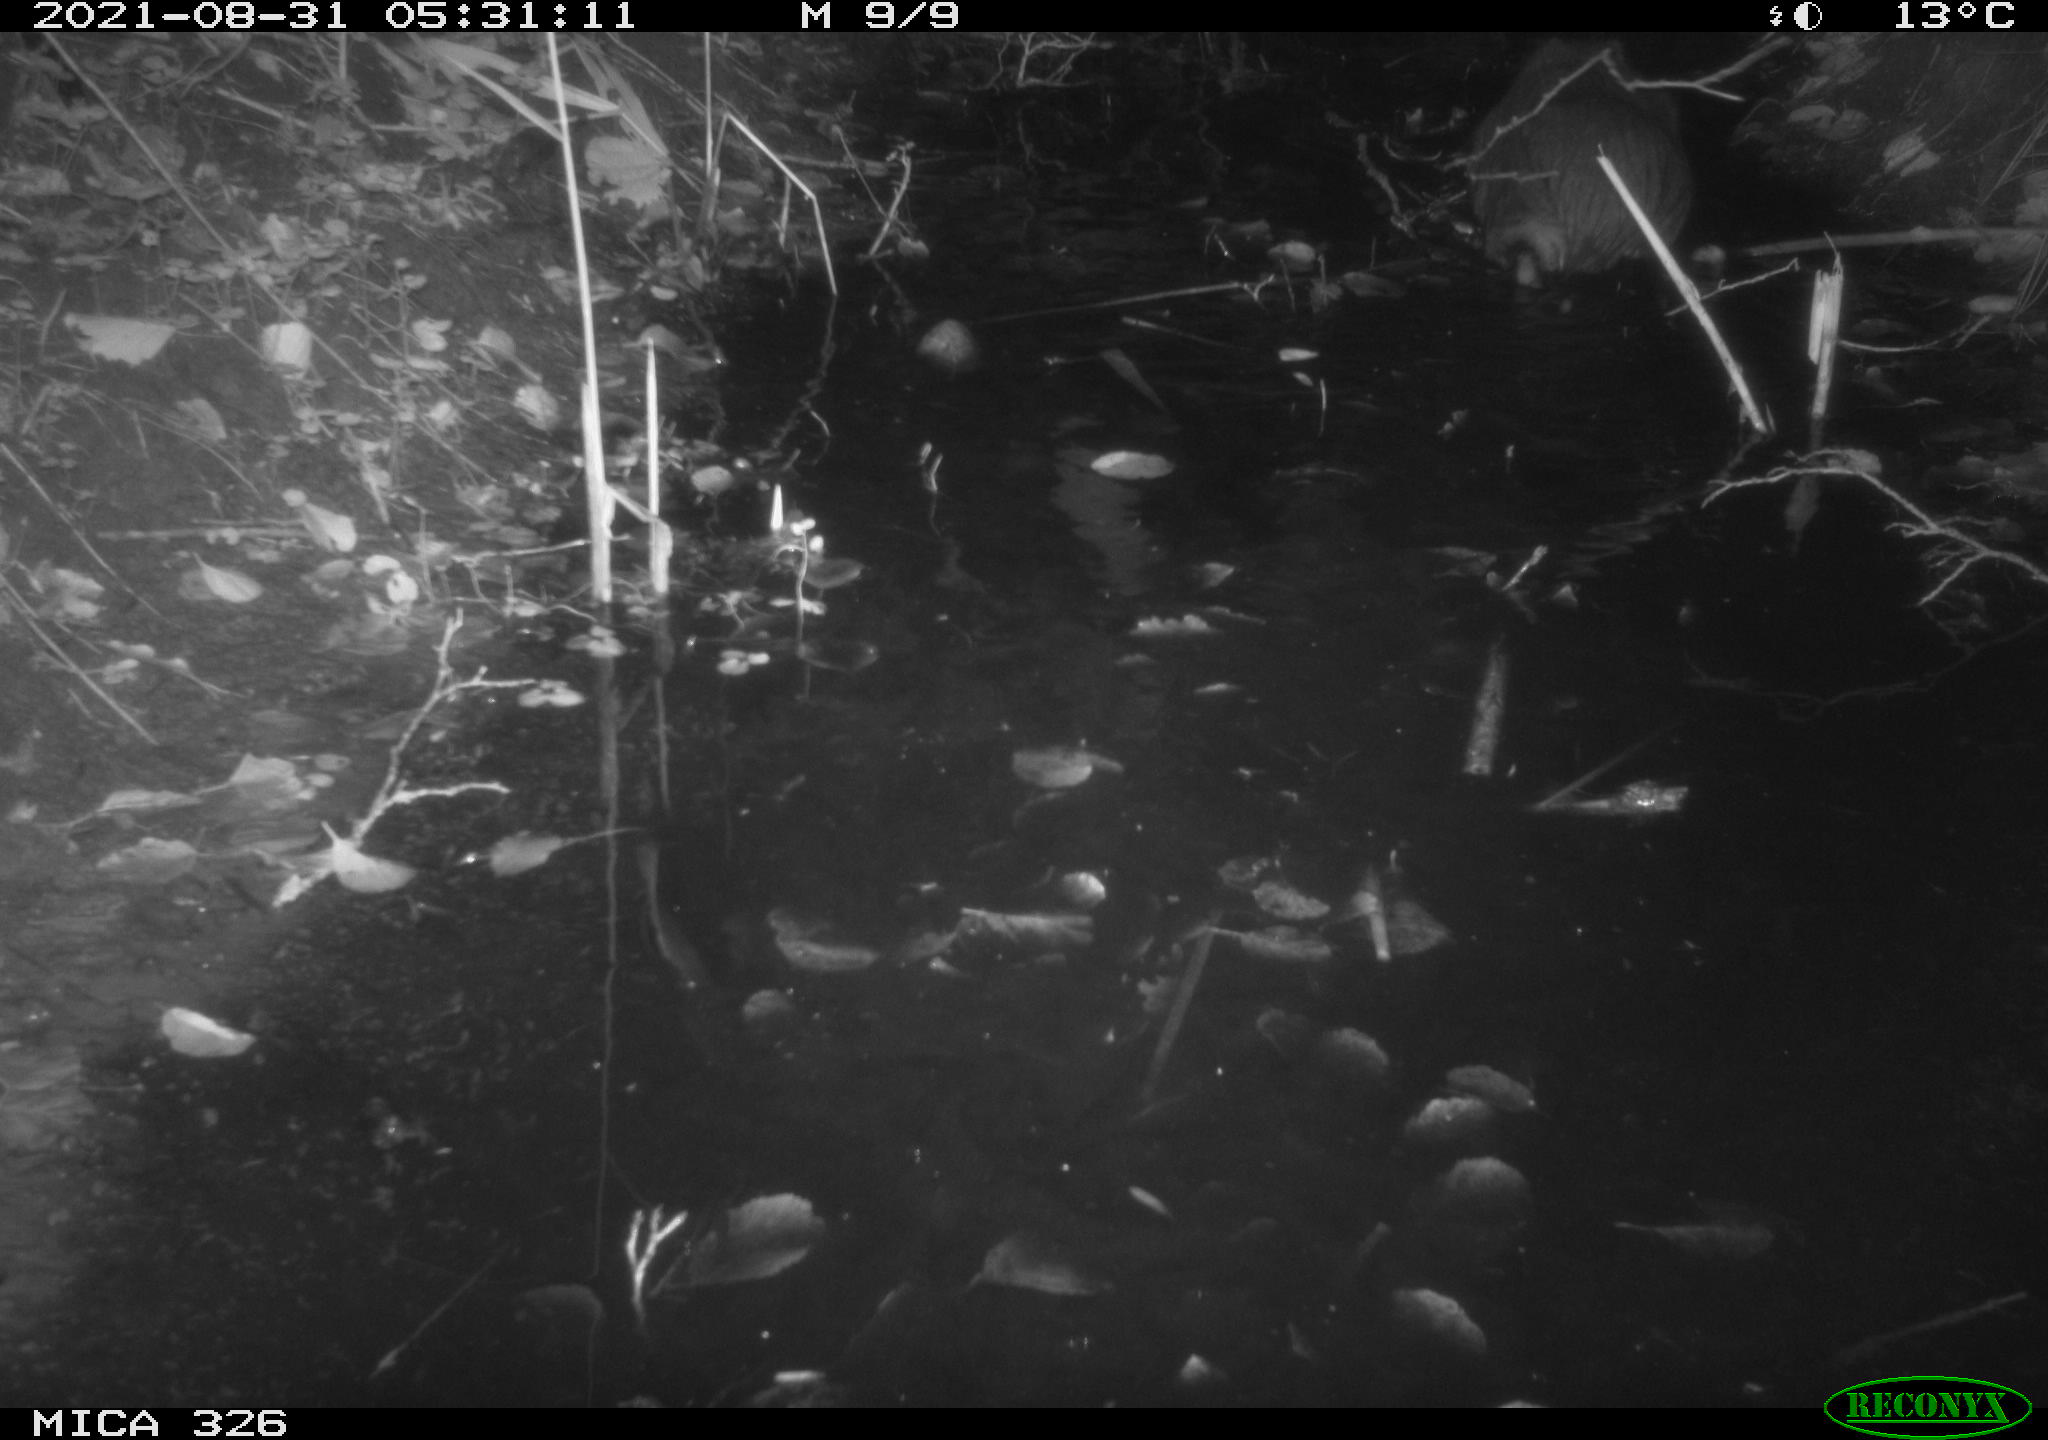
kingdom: Animalia
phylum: Chordata
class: Mammalia
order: Rodentia
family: Myocastoridae
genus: Myocastor
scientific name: Myocastor coypus
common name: Coypu
